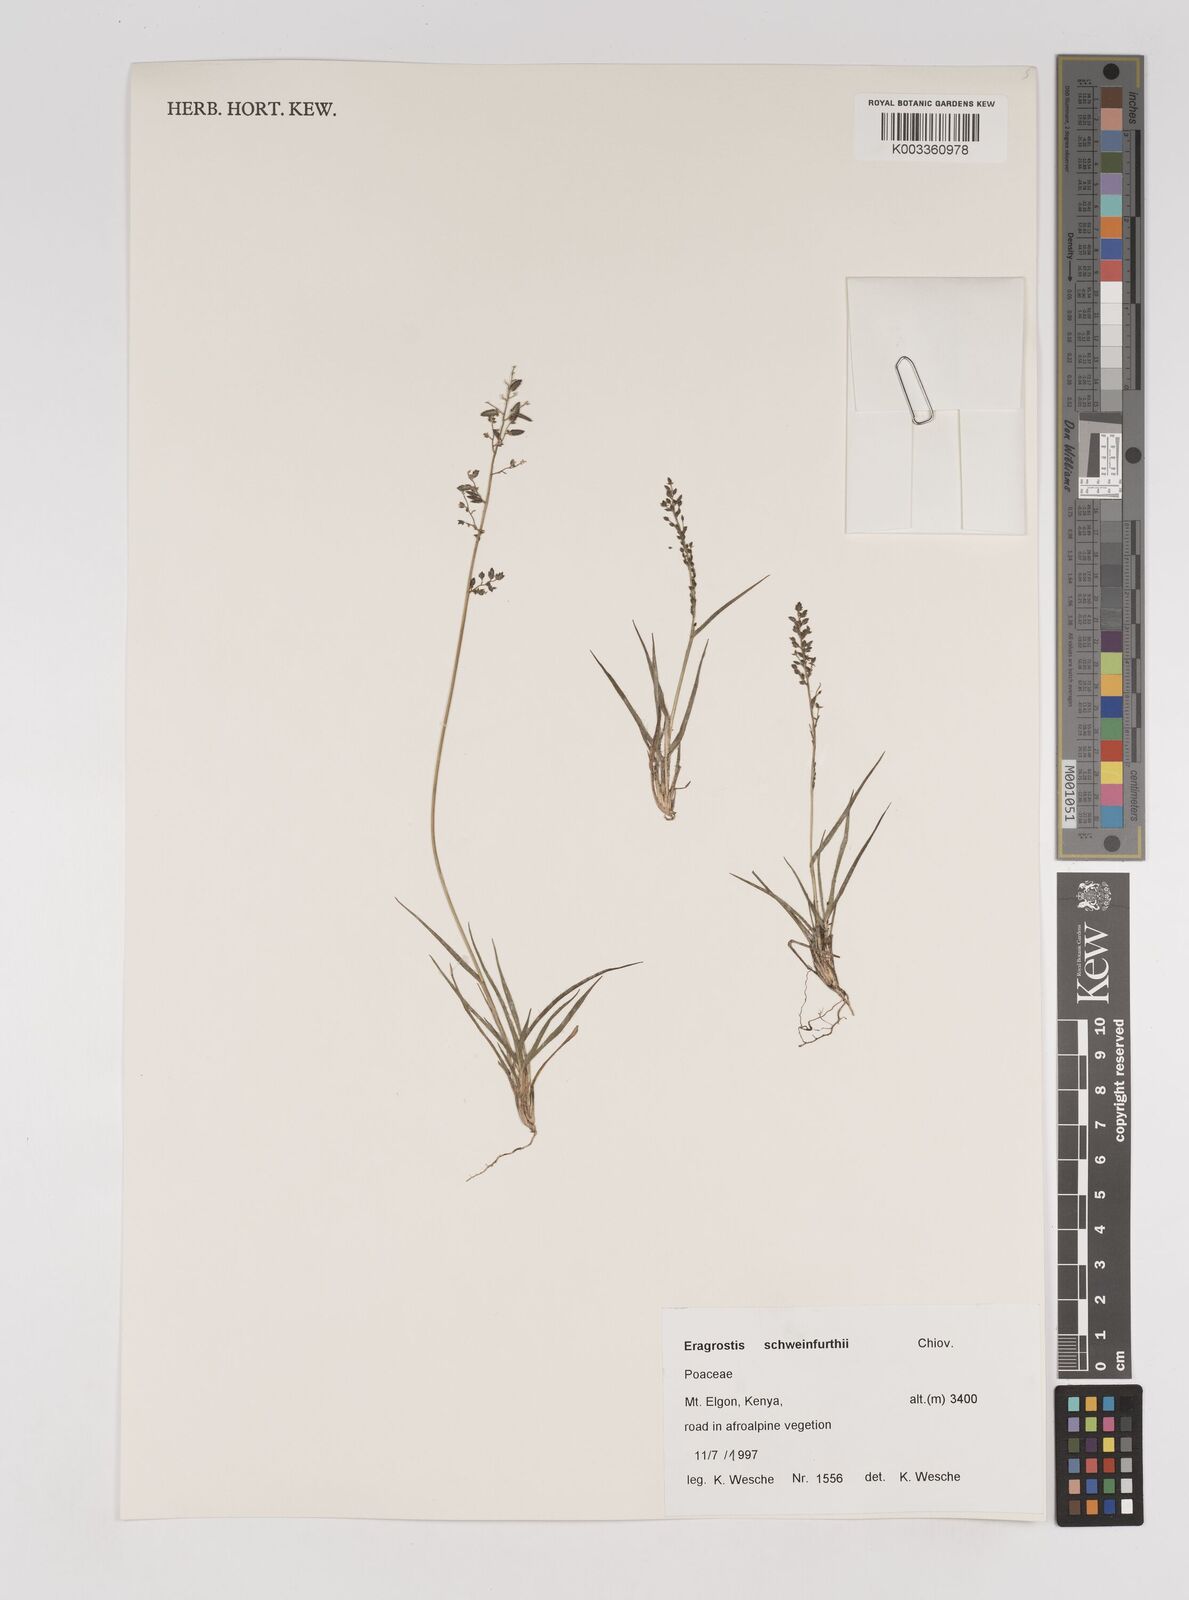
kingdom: Plantae
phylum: Tracheophyta
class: Liliopsida
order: Poales
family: Poaceae
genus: Eragrostis
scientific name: Eragrostis schweinfurthii
